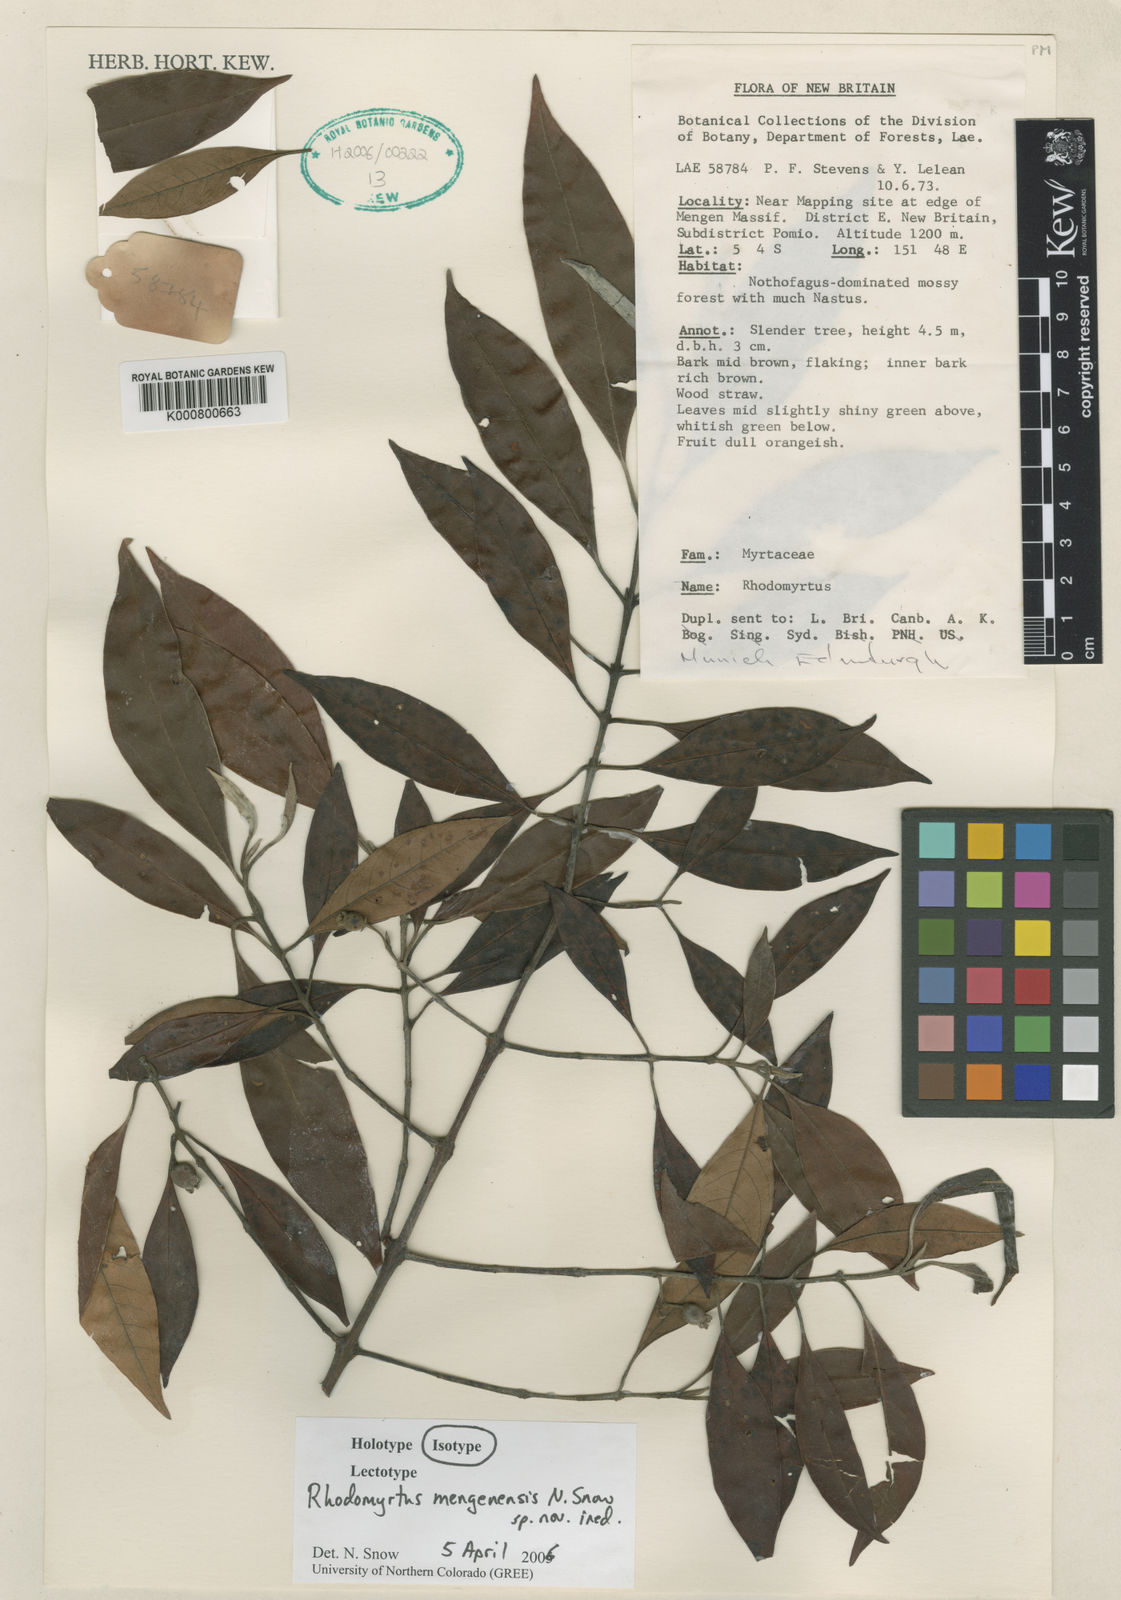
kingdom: Plantae
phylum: Tracheophyta
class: Magnoliopsida
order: Myrtales
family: Myrtaceae
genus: Rhodomyrtus
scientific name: Rhodomyrtus mengenensis
